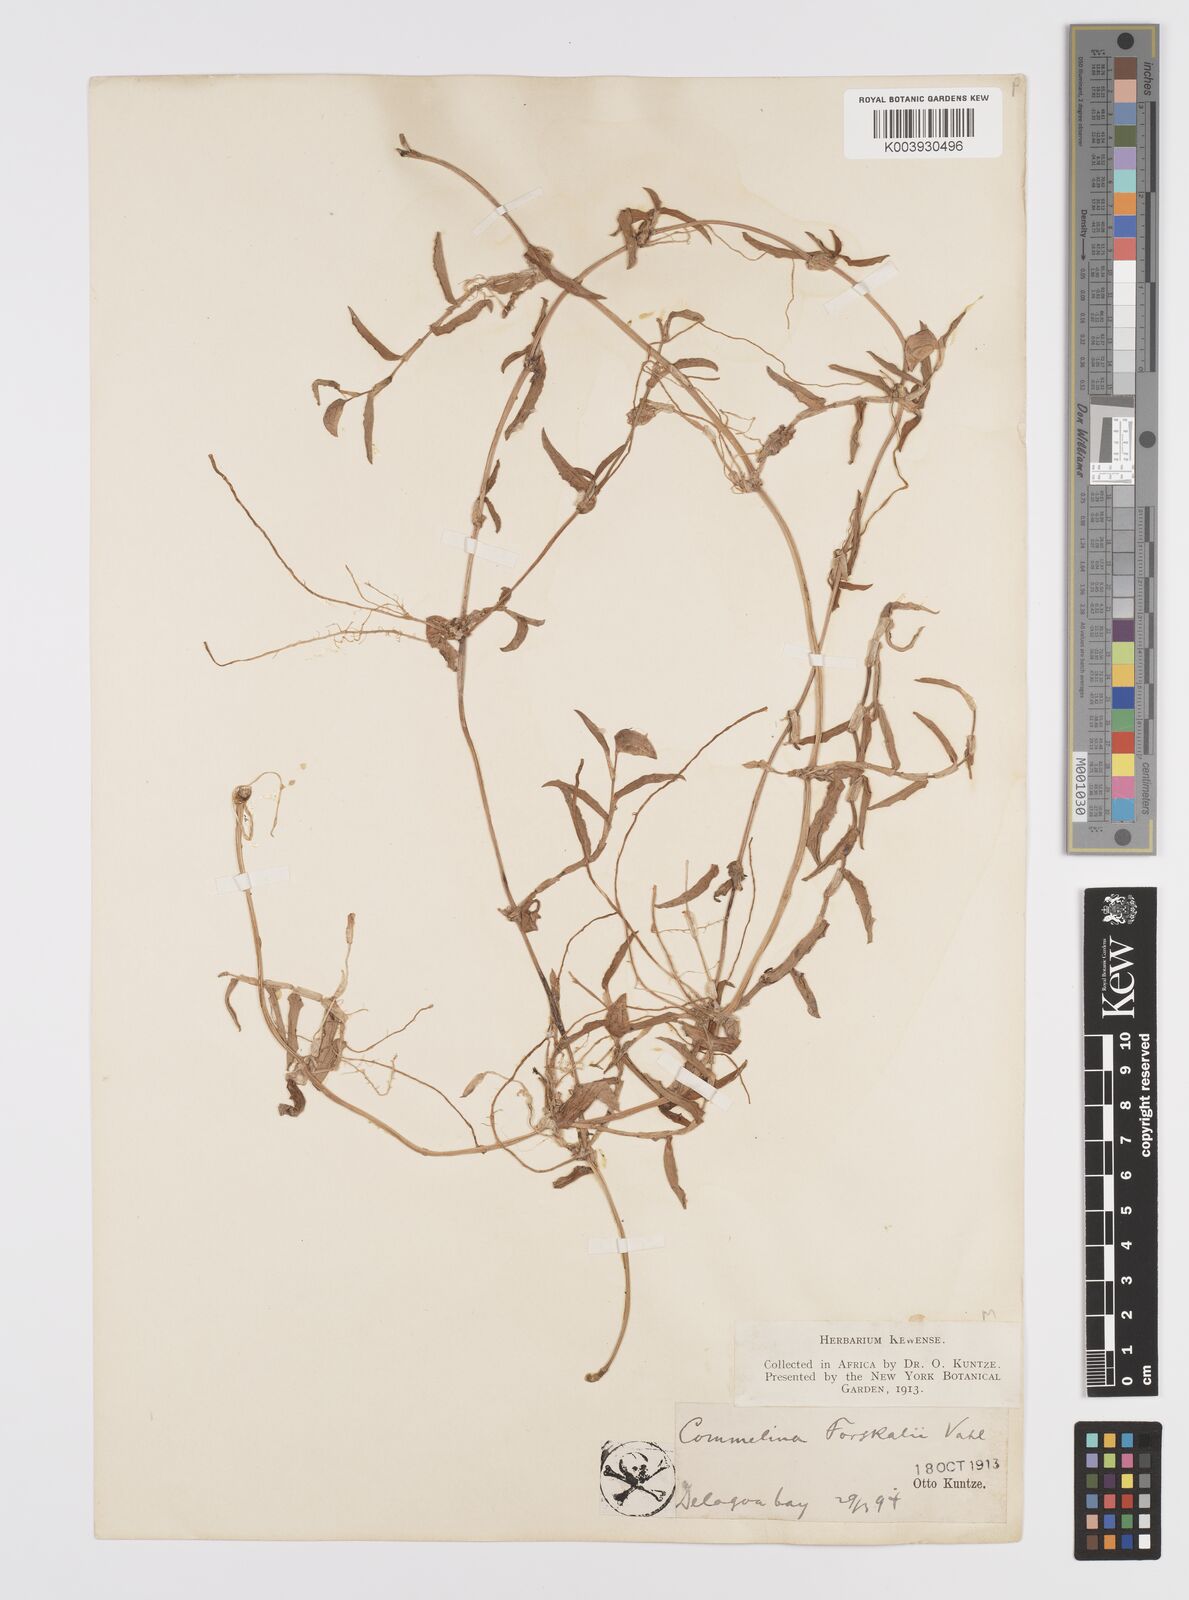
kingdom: Plantae
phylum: Tracheophyta
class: Liliopsida
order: Commelinales
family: Commelinaceae
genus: Commelina
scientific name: Commelina forskaolii
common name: Rat's ear
